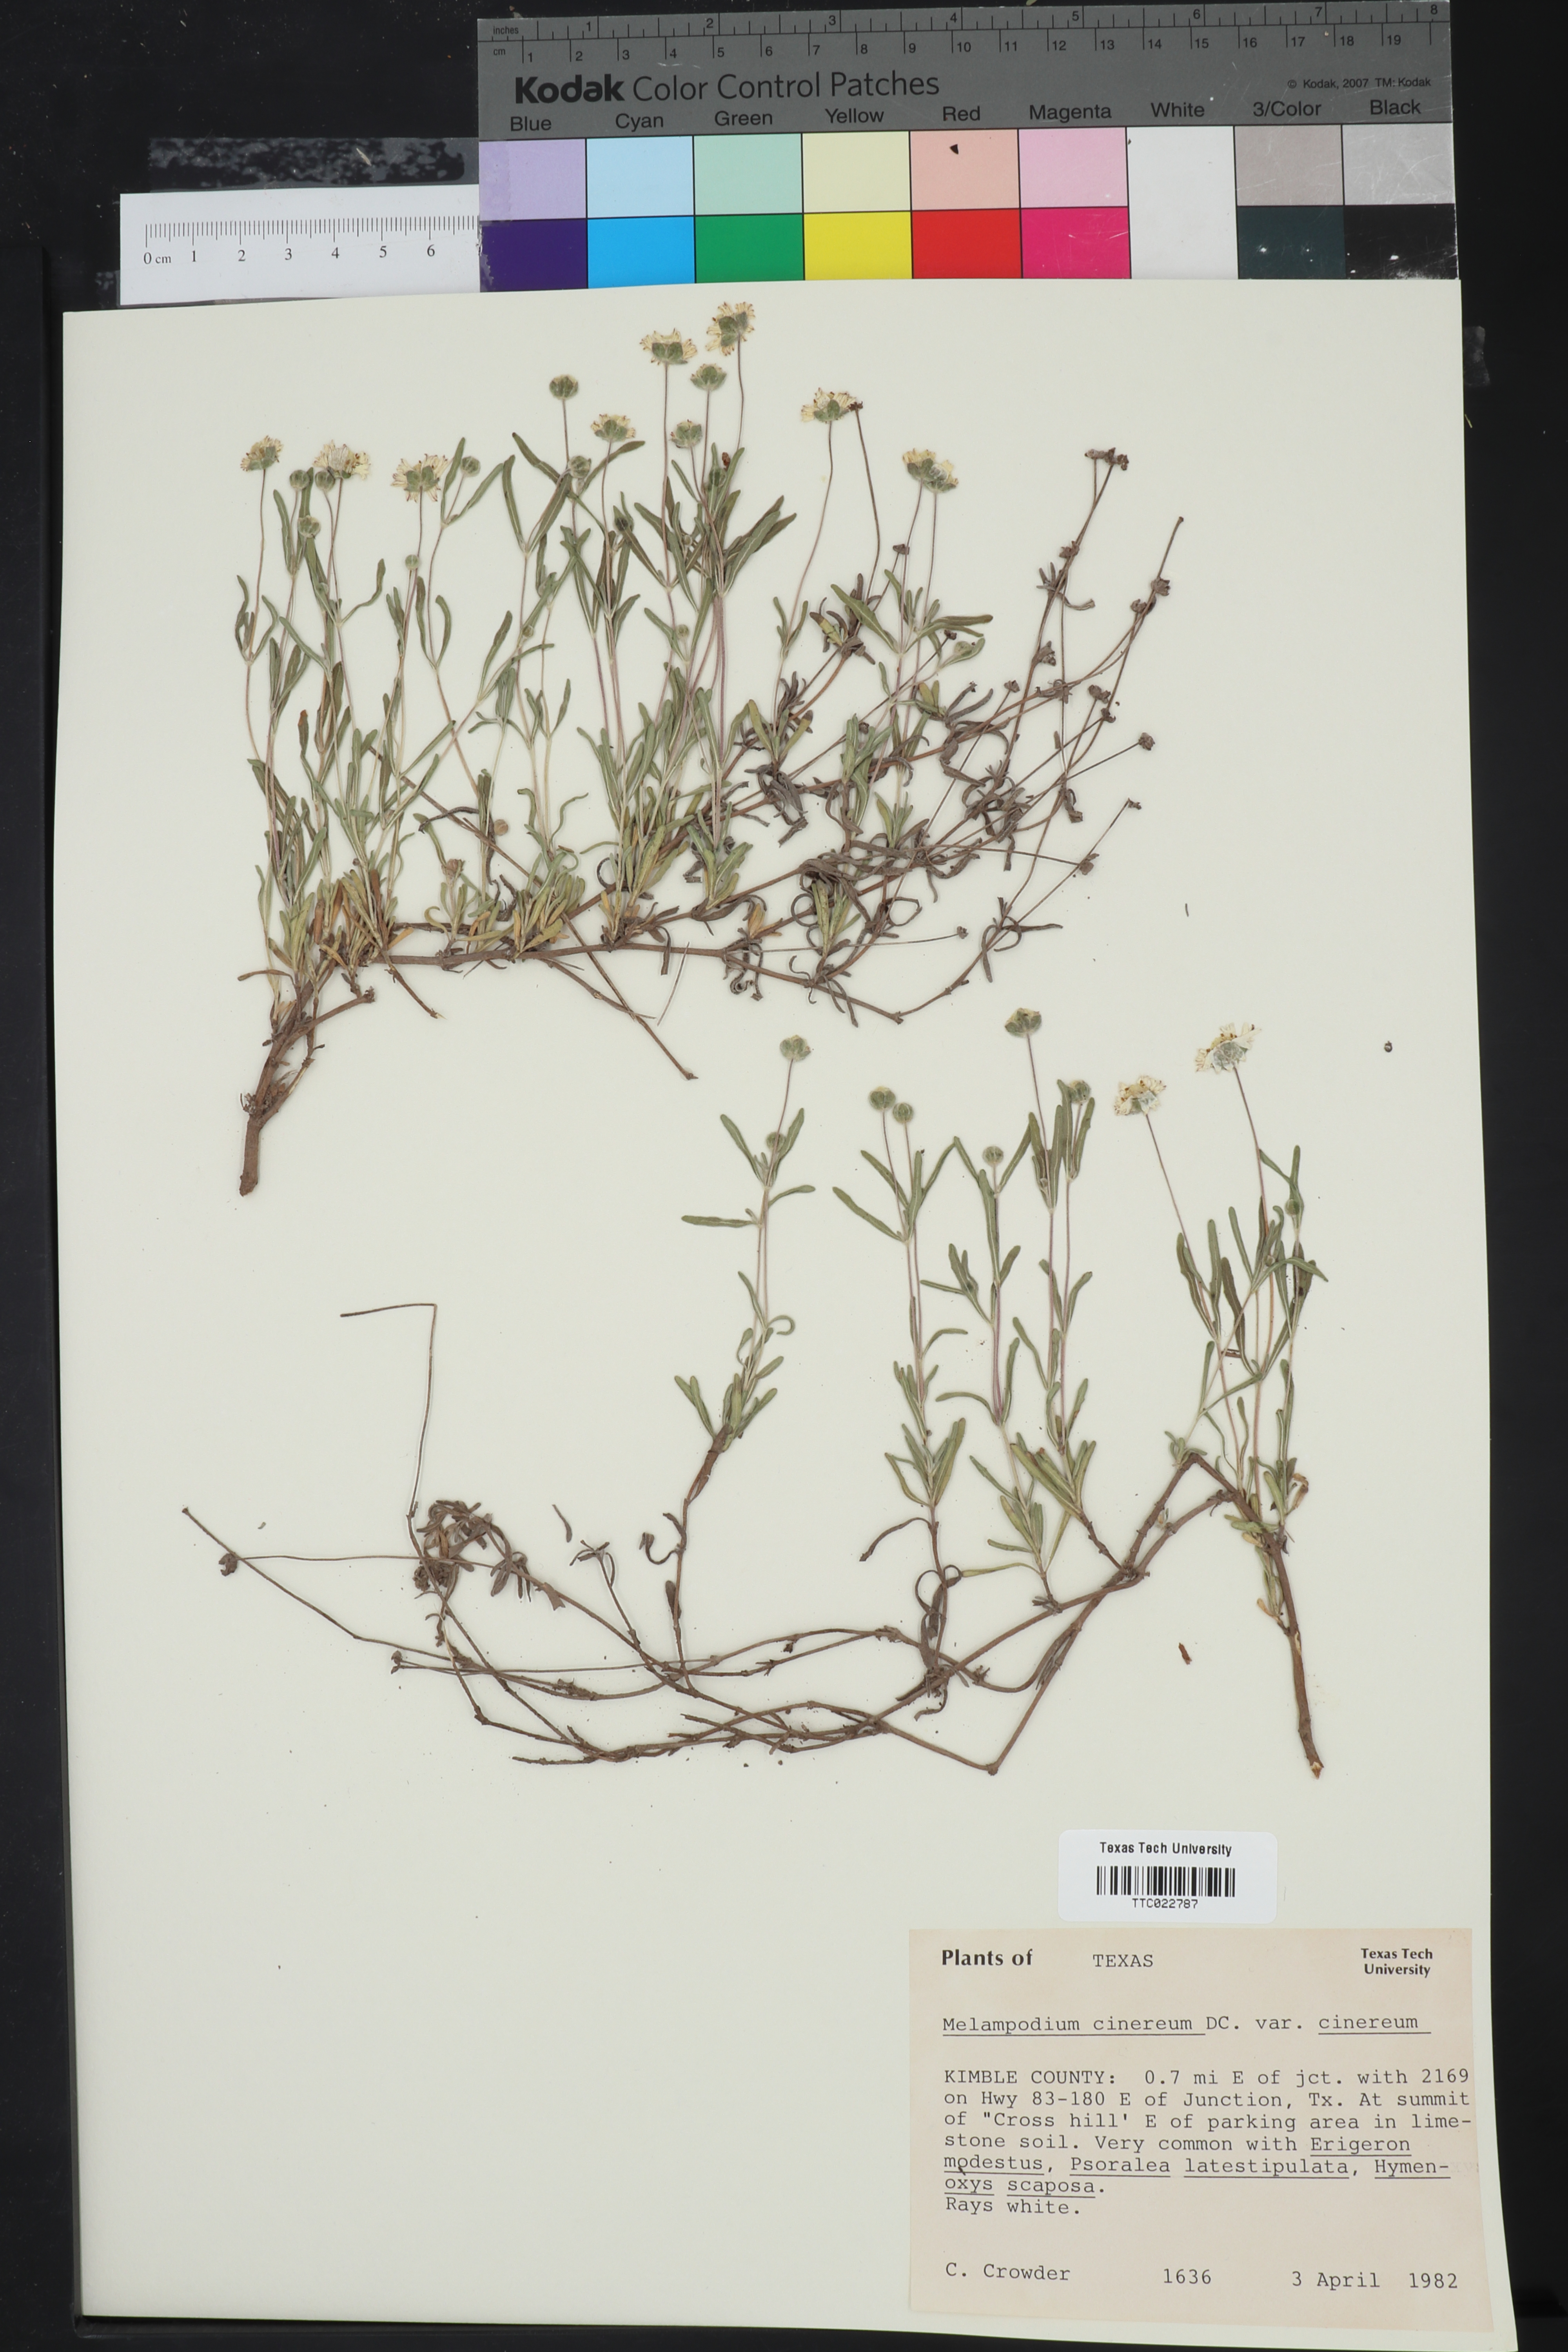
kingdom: Plantae
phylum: Tracheophyta
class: Magnoliopsida
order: Asterales
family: Asteraceae
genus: Melampodium
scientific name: Melampodium cinereum
